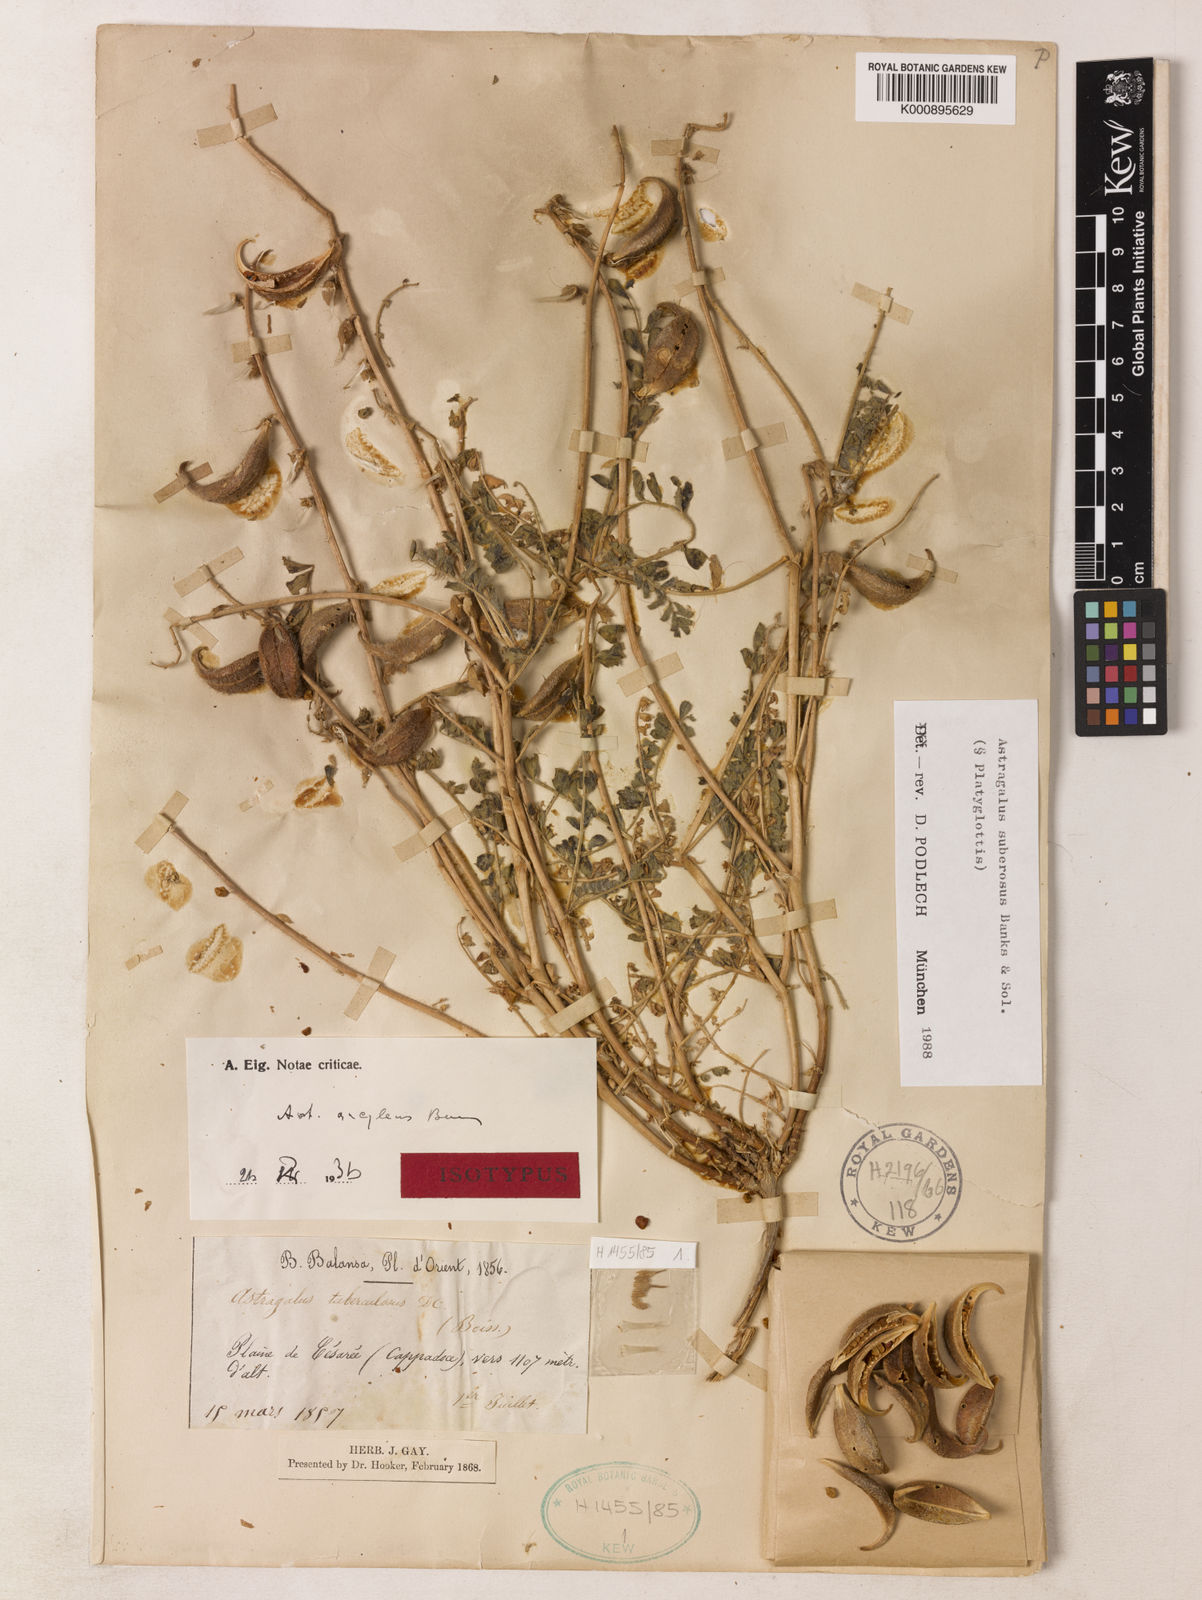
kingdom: Plantae
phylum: Tracheophyta
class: Magnoliopsida
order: Fabales
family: Fabaceae
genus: Astragalus
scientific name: Astragalus suberosus
